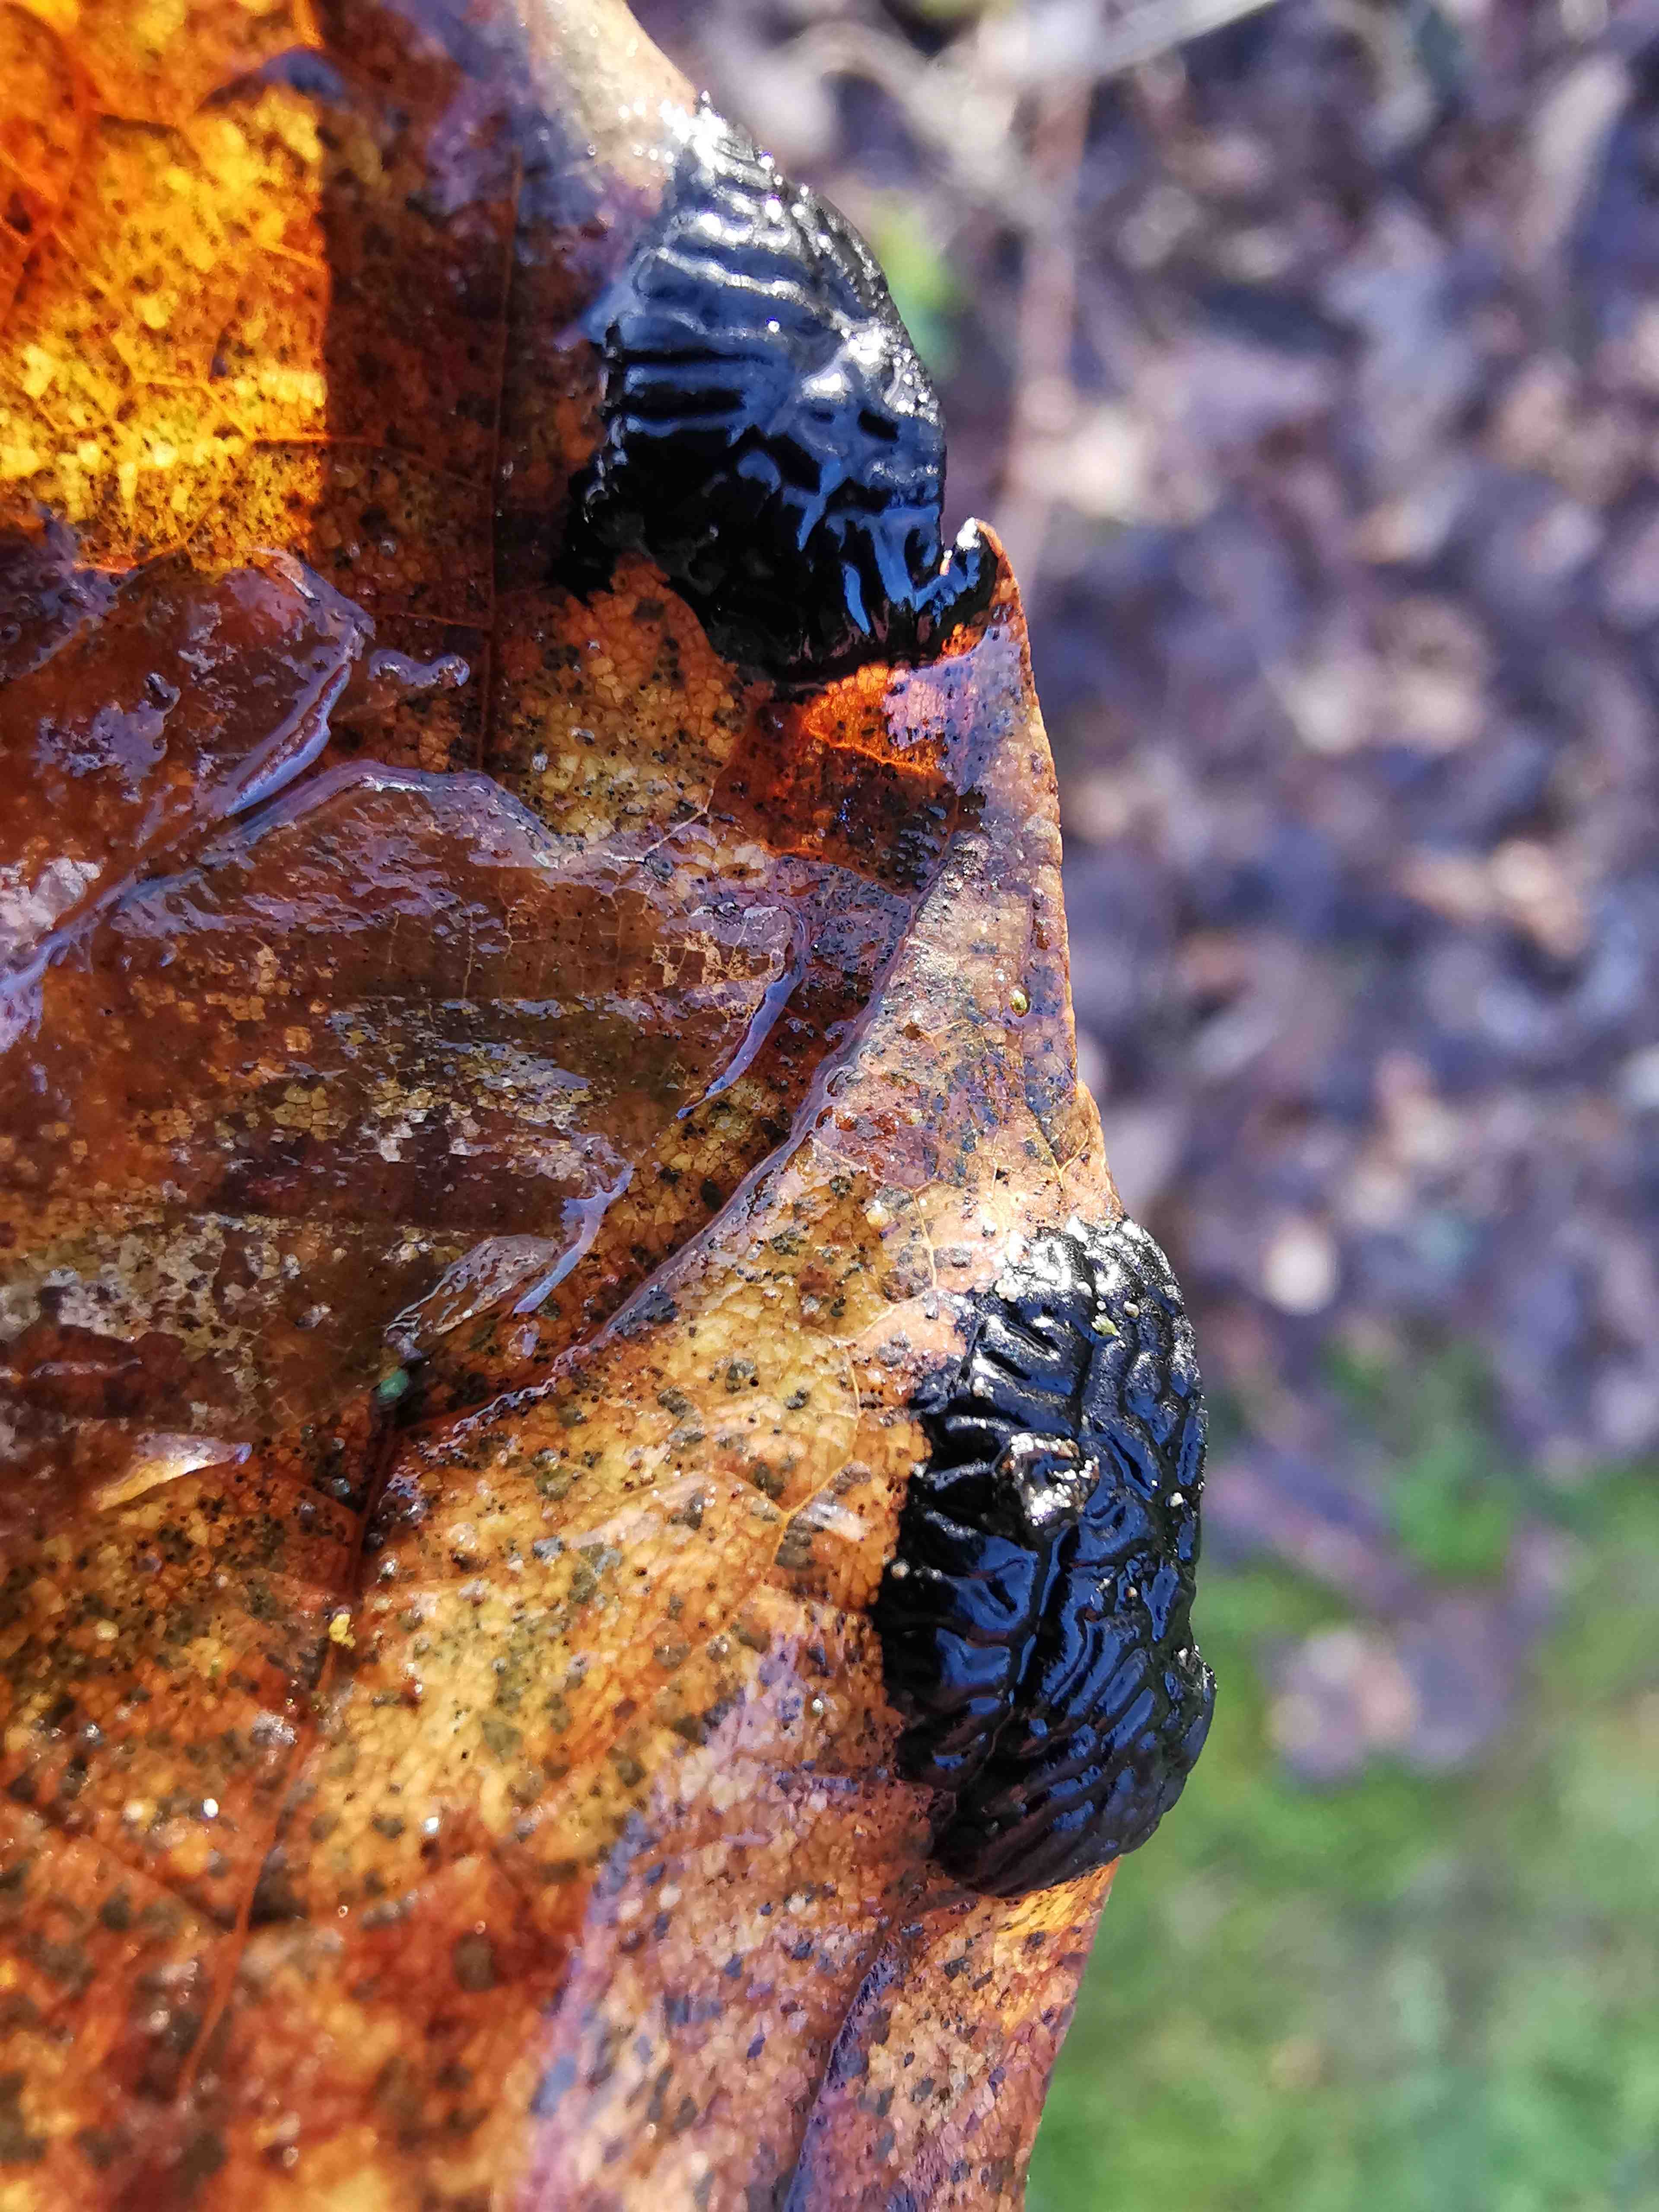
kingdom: Fungi
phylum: Ascomycota
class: Leotiomycetes
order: Rhytismatales
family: Rhytismataceae
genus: Rhytisma
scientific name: Rhytisma acerinum
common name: ahorn-rynkeplet
